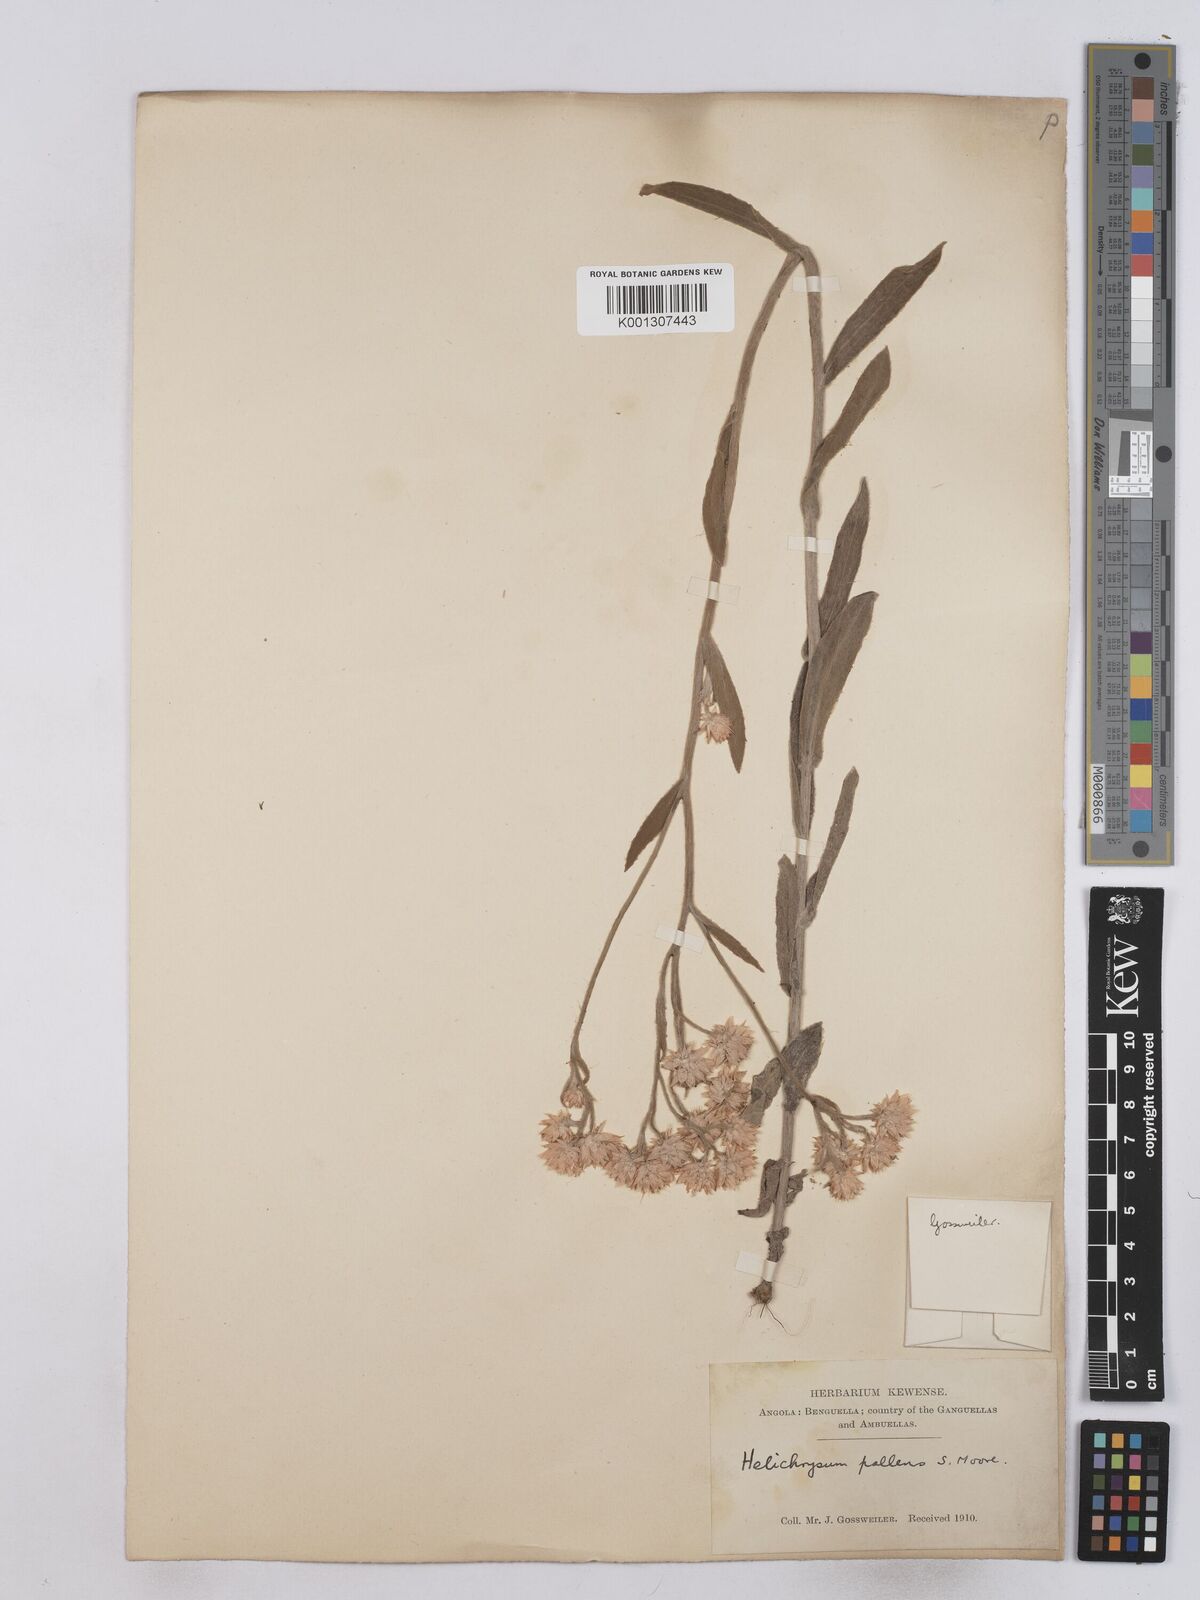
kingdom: Plantae
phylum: Tracheophyta
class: Magnoliopsida
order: Asterales
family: Asteraceae
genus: Helichrysum
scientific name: Helichrysum quartinianum
